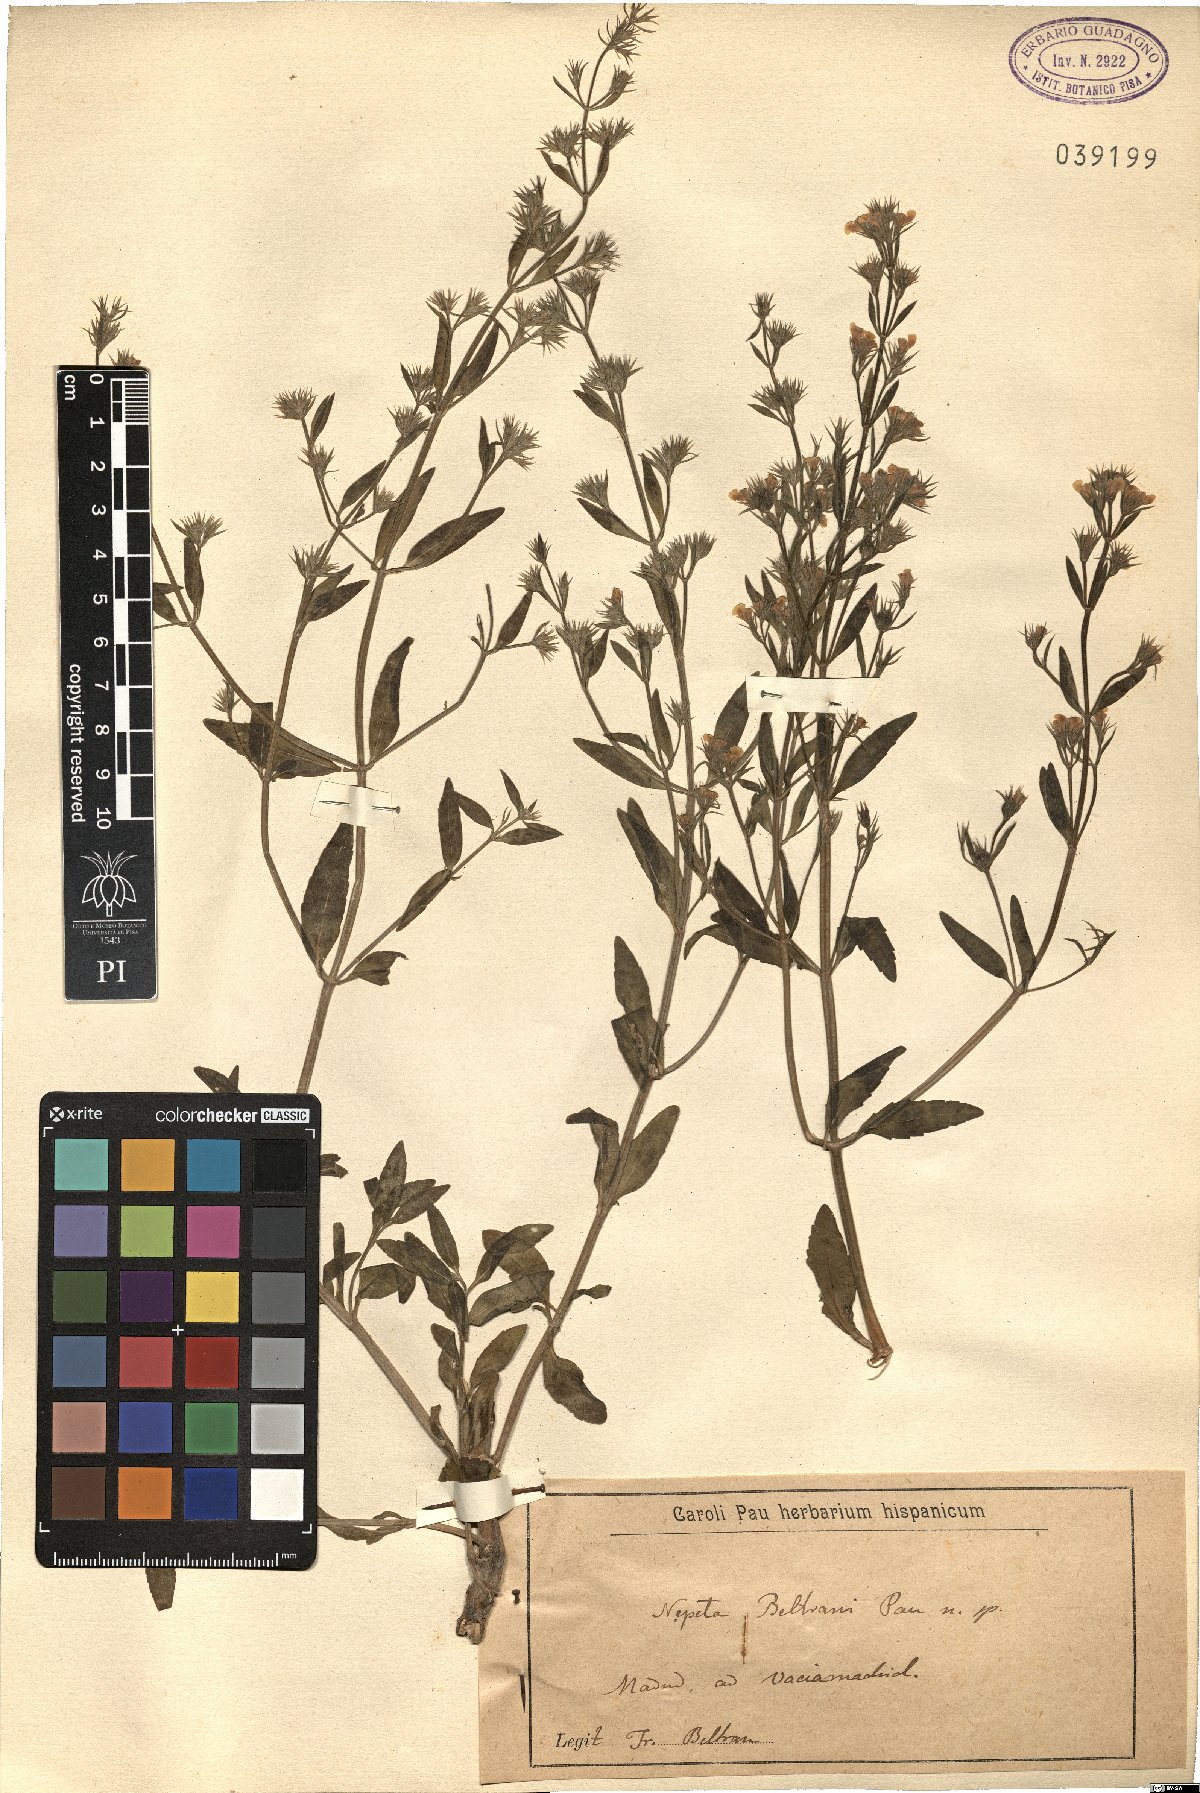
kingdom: Plantae
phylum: Tracheophyta
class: Magnoliopsida
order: Lamiales
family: Lamiaceae
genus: Nepeta
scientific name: Nepeta hispanica
